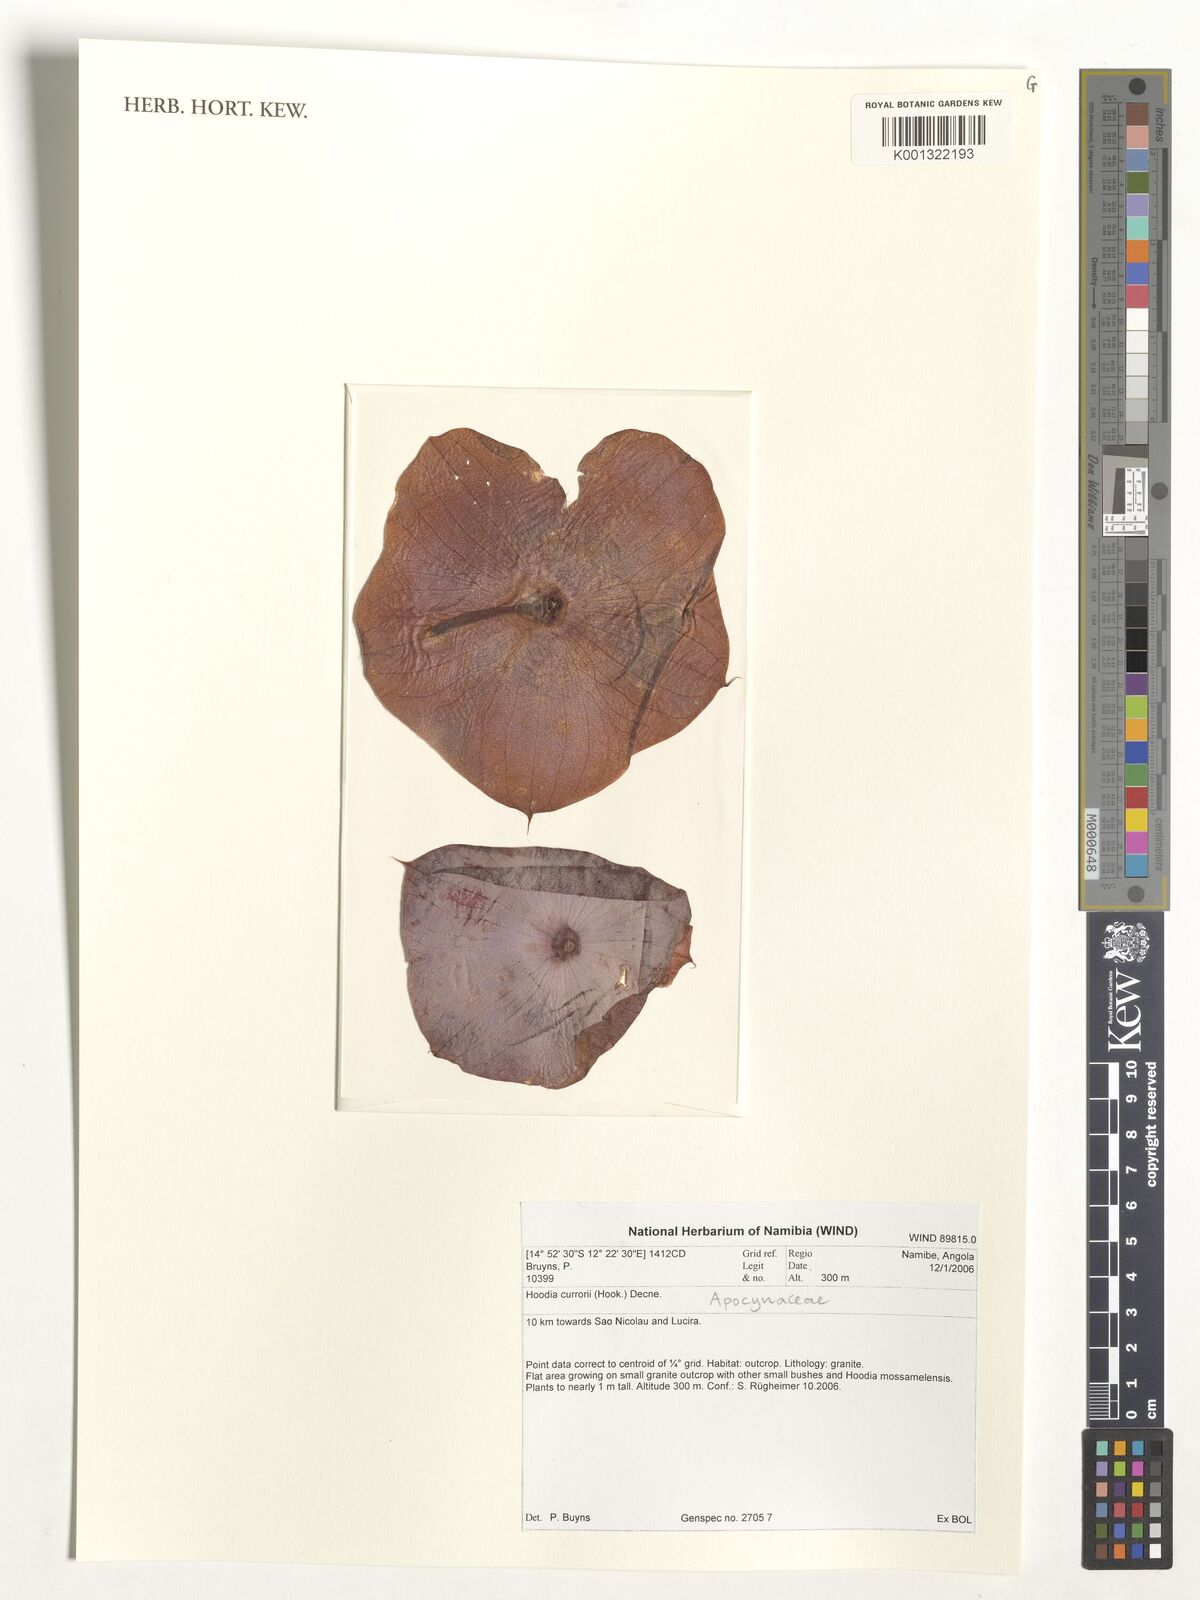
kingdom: Plantae
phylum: Tracheophyta
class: Magnoliopsida
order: Gentianales
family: Apocynaceae
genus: Ceropegia
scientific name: Ceropegia currorii
